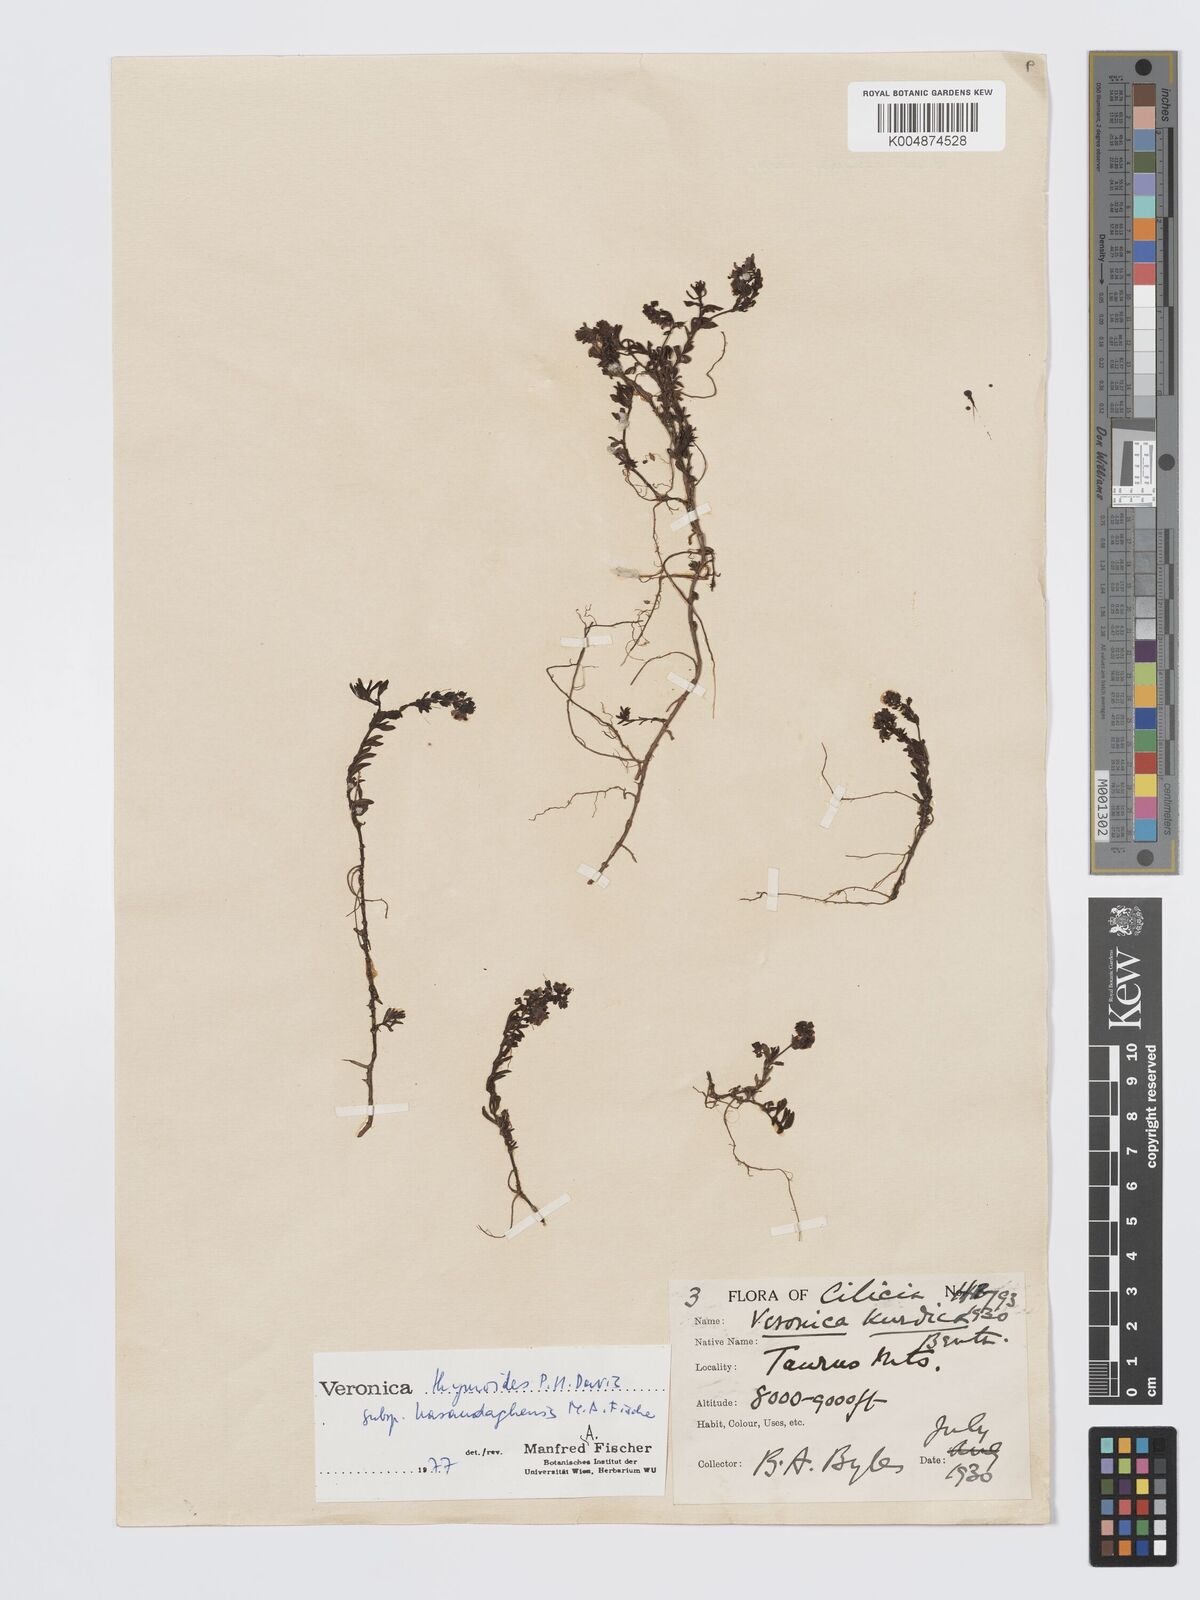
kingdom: Plantae
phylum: Tracheophyta
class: Magnoliopsida
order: Lamiales
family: Plantaginaceae
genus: Veronica
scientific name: Veronica thymoides
